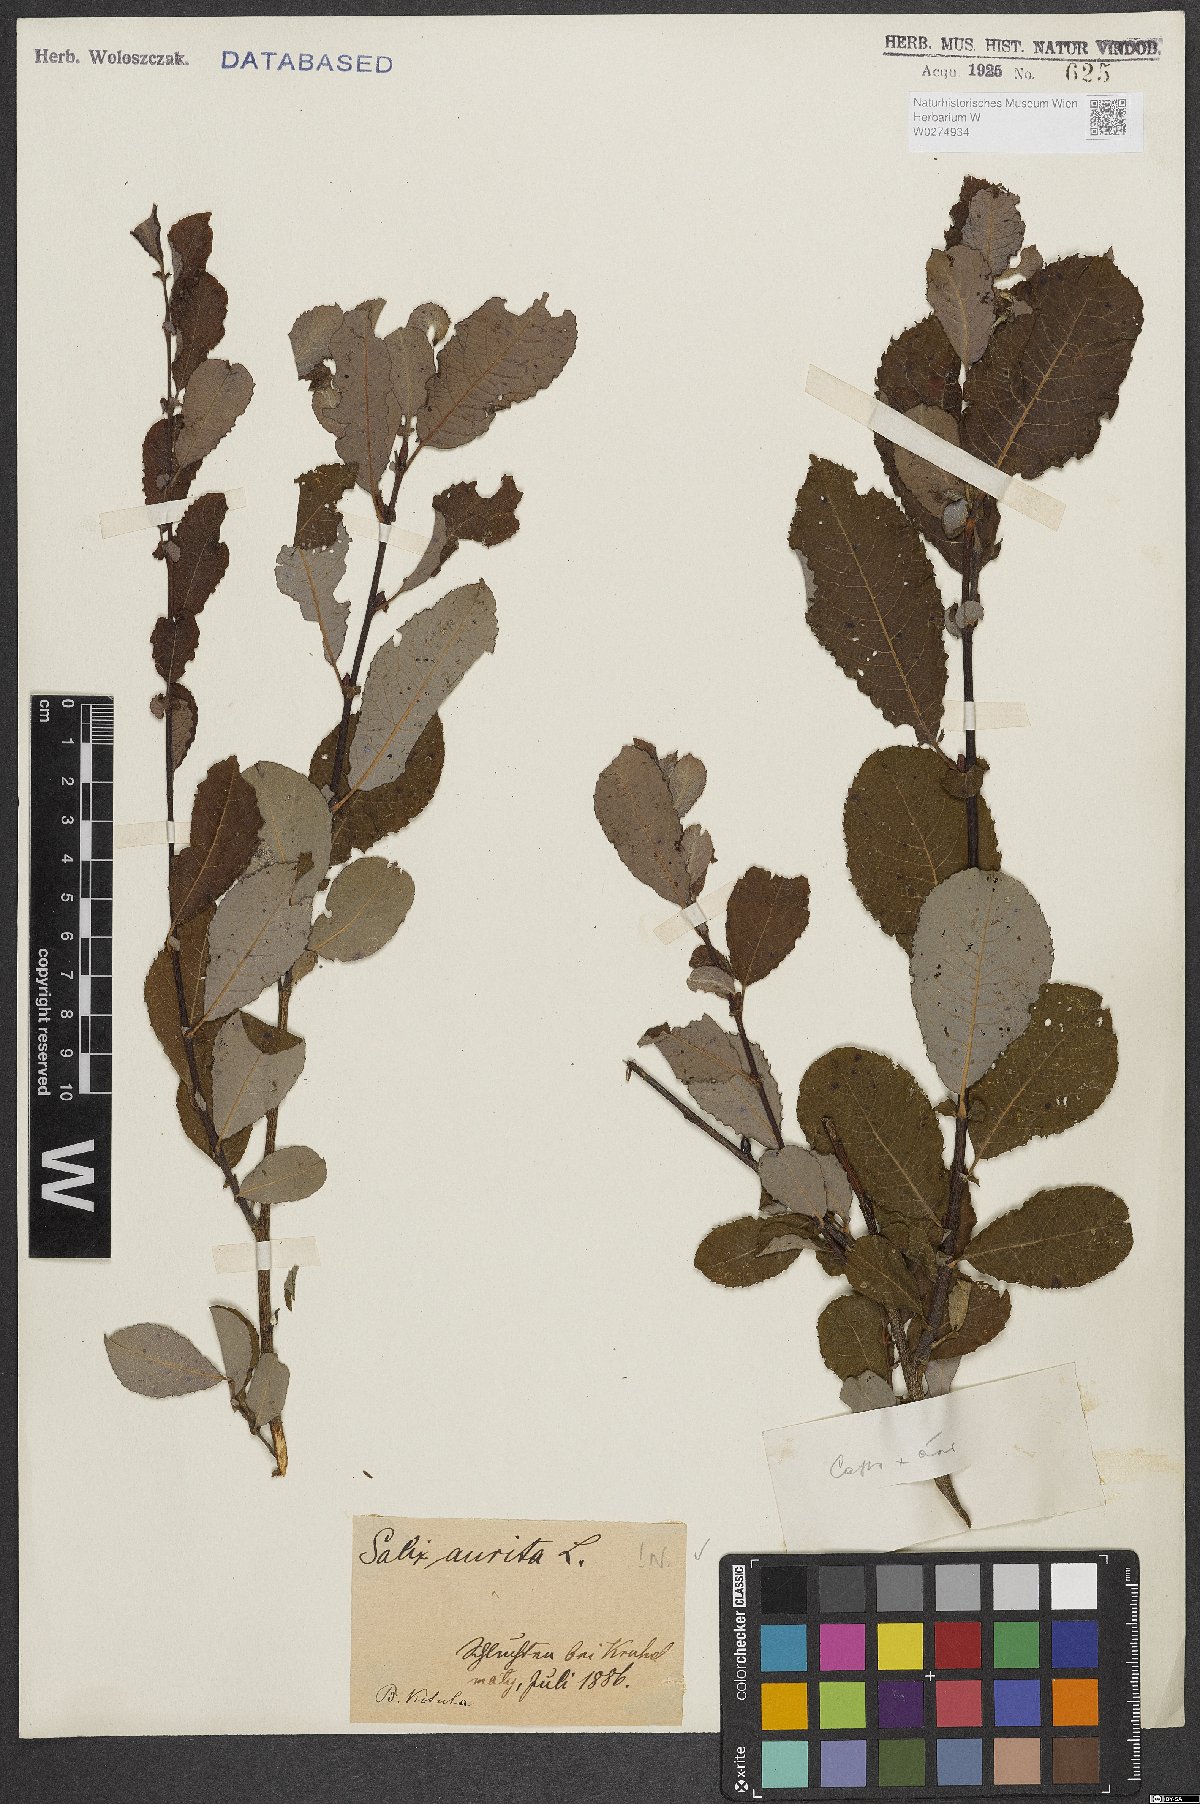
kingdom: Plantae
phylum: Tracheophyta
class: Magnoliopsida
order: Malpighiales
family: Salicaceae
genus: Salix
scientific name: Salix aurita
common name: Eared willow
